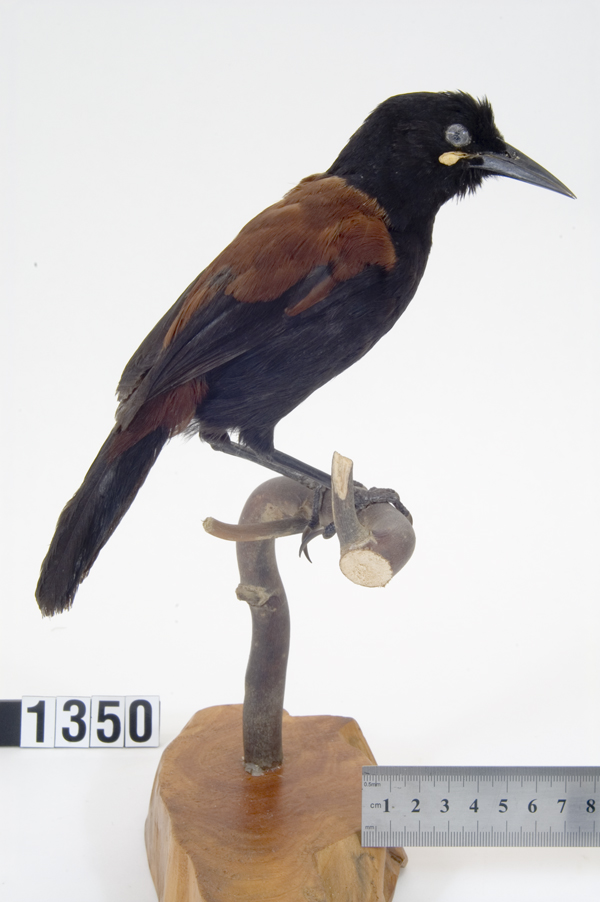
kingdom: Animalia
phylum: Chordata
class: Aves
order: Passeriformes
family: Callaeatidae
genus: Philesturnus
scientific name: Philesturnus carunculatus
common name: South island saddleback
